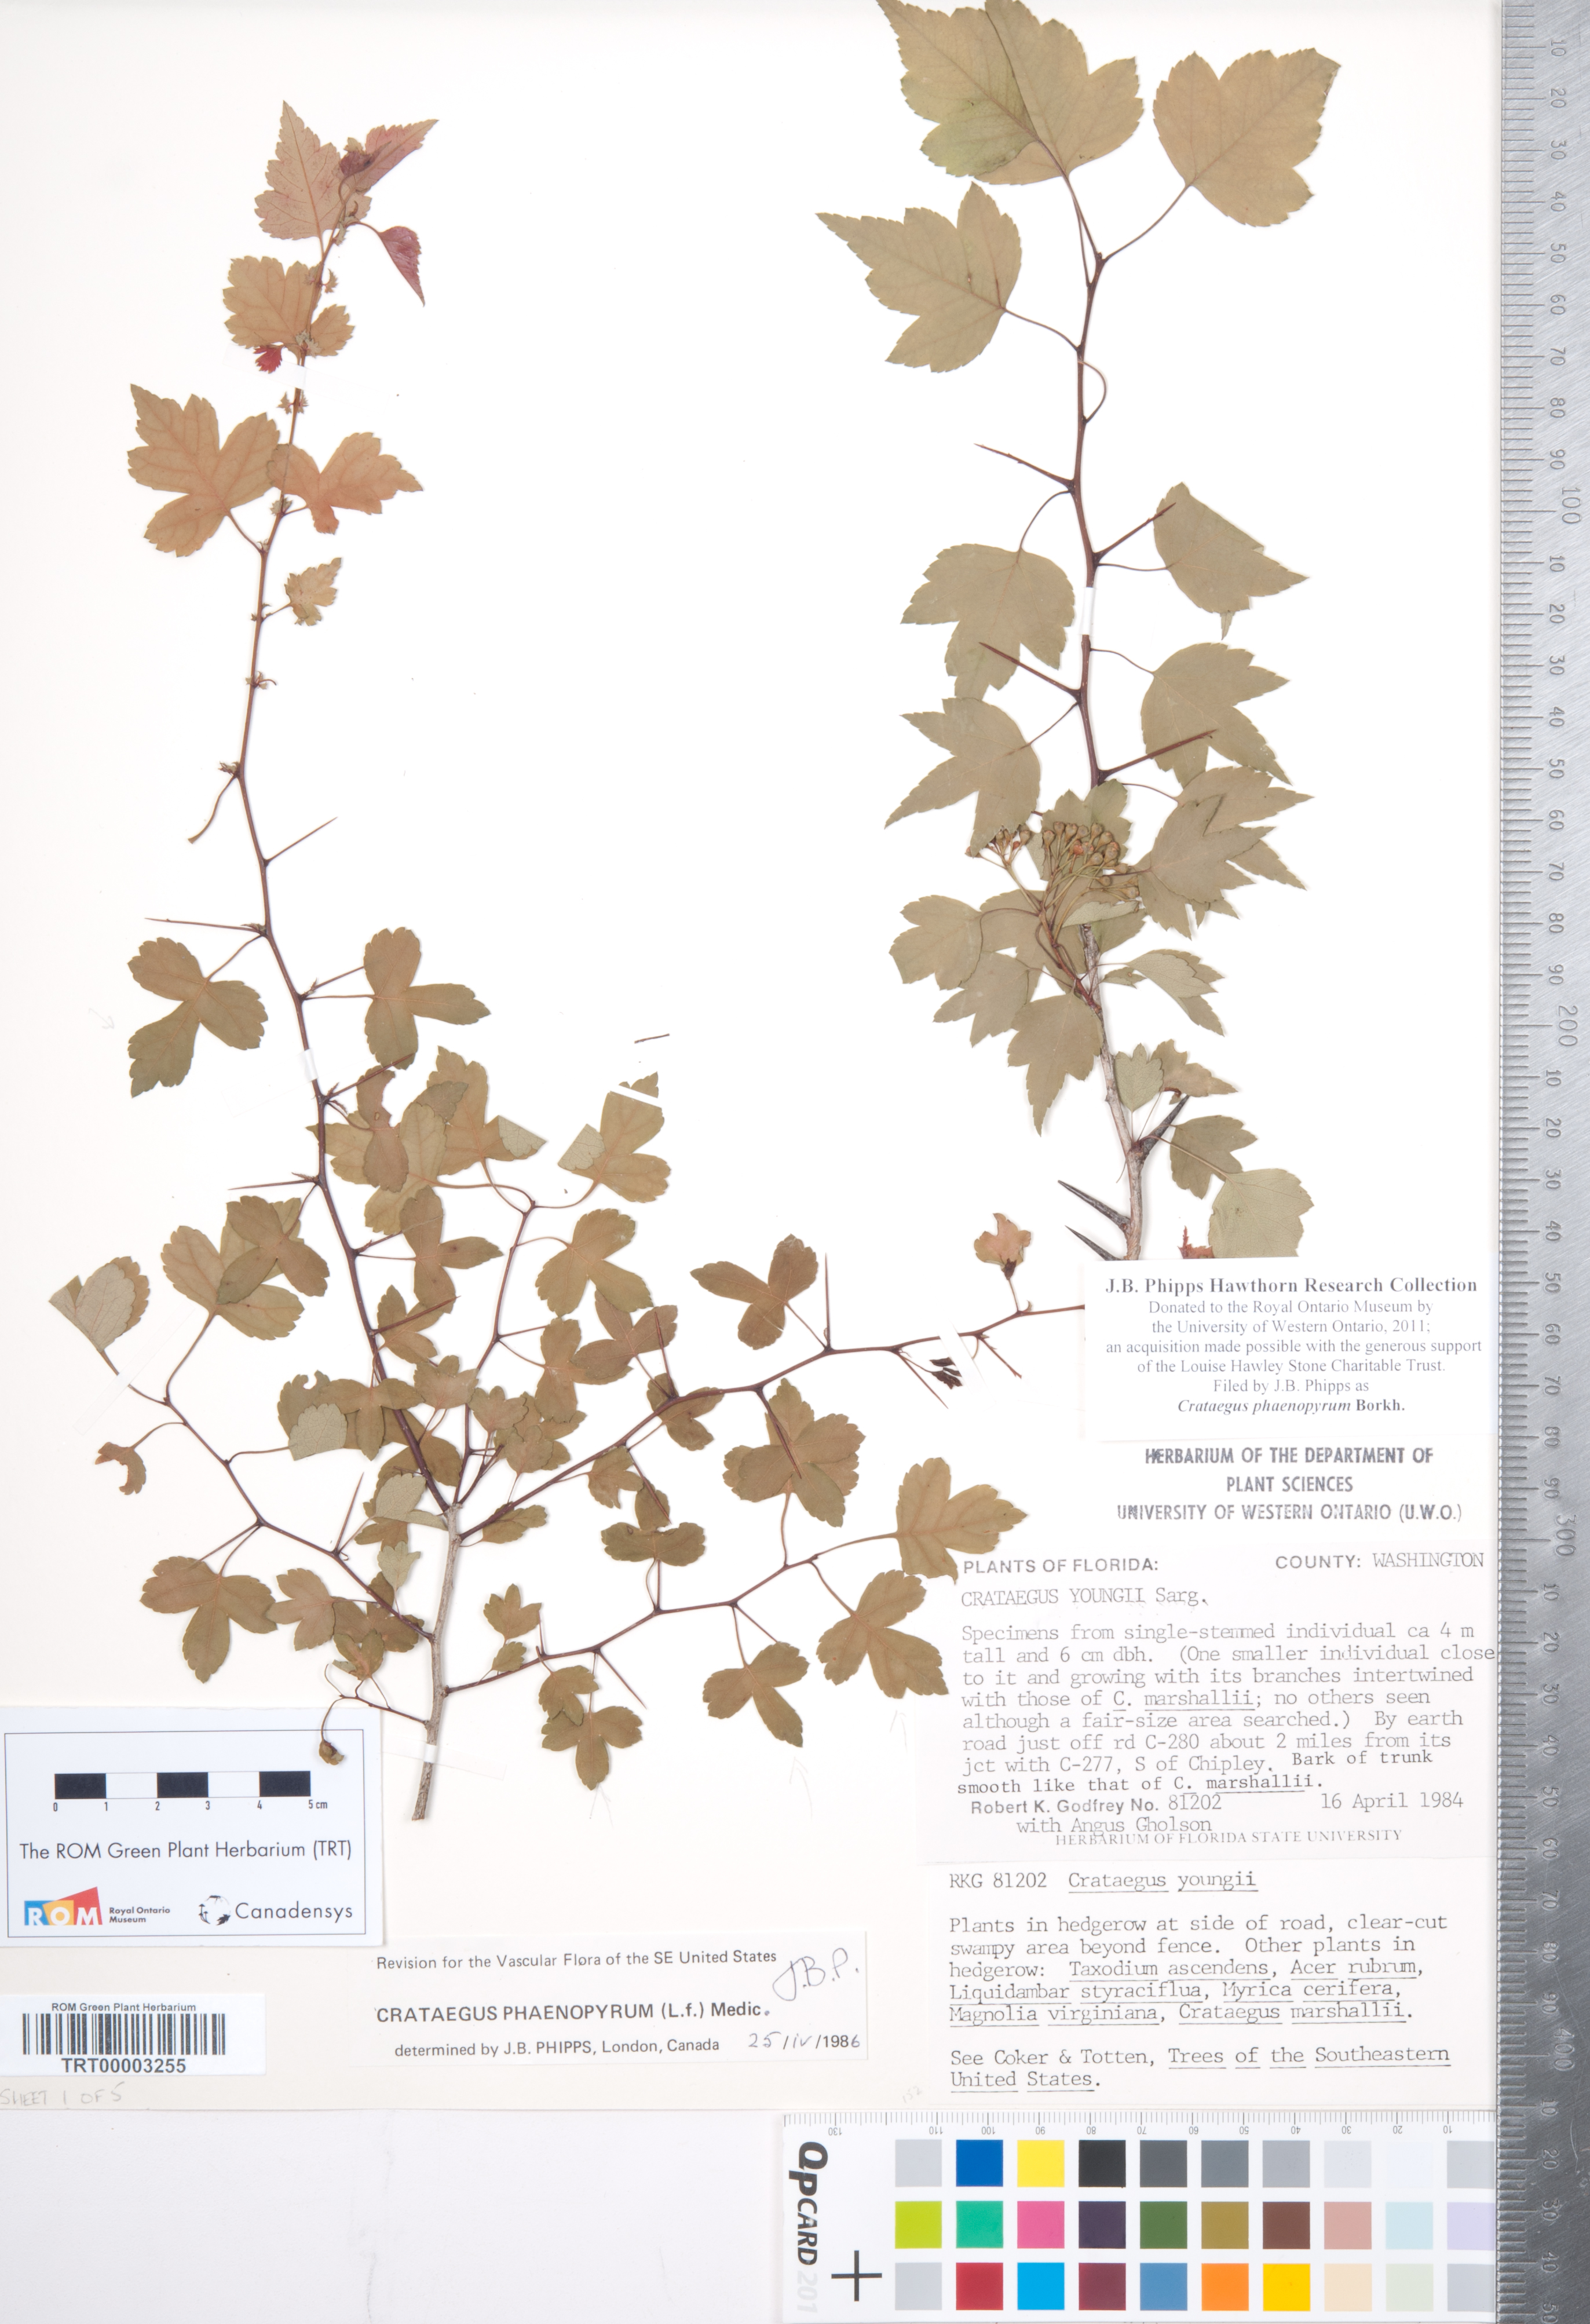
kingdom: Plantae
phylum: Tracheophyta
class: Magnoliopsida
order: Rosales
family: Rosaceae
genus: Crataegus
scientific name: Crataegus phaenopyrum
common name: Washington hawthorn
